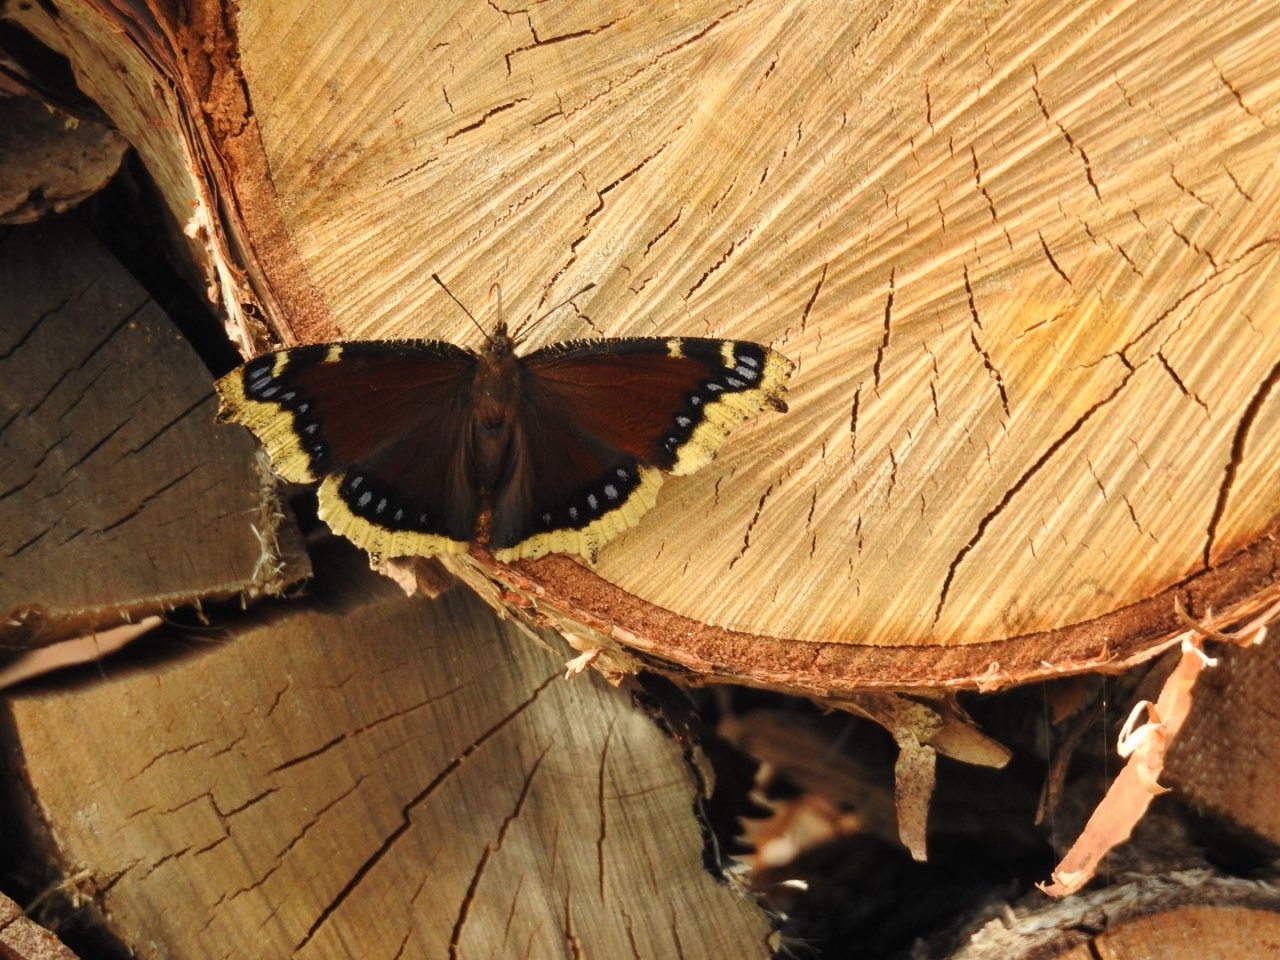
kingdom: Animalia
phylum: Arthropoda
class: Insecta
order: Lepidoptera
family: Nymphalidae
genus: Nymphalis
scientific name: Nymphalis antiopa
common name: Mourning Cloak
